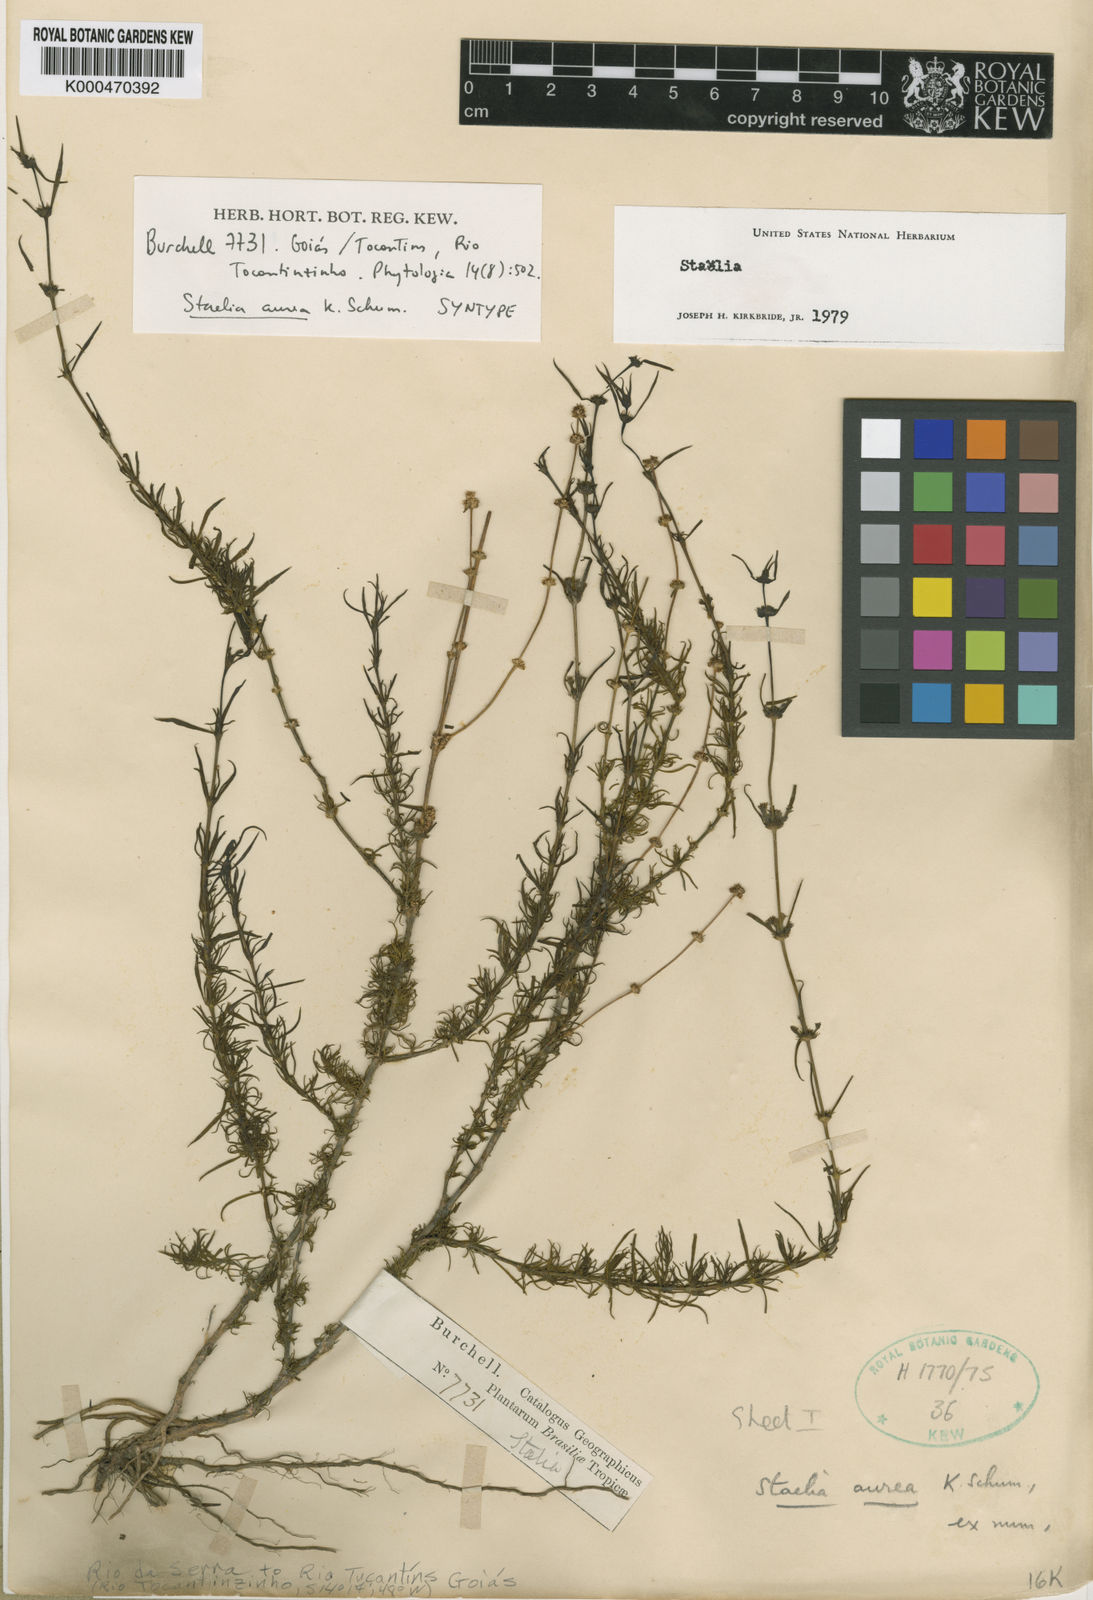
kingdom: Plantae
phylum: Tracheophyta
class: Magnoliopsida
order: Gentianales
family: Rubiaceae
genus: Staelia
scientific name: Staelia aurea
